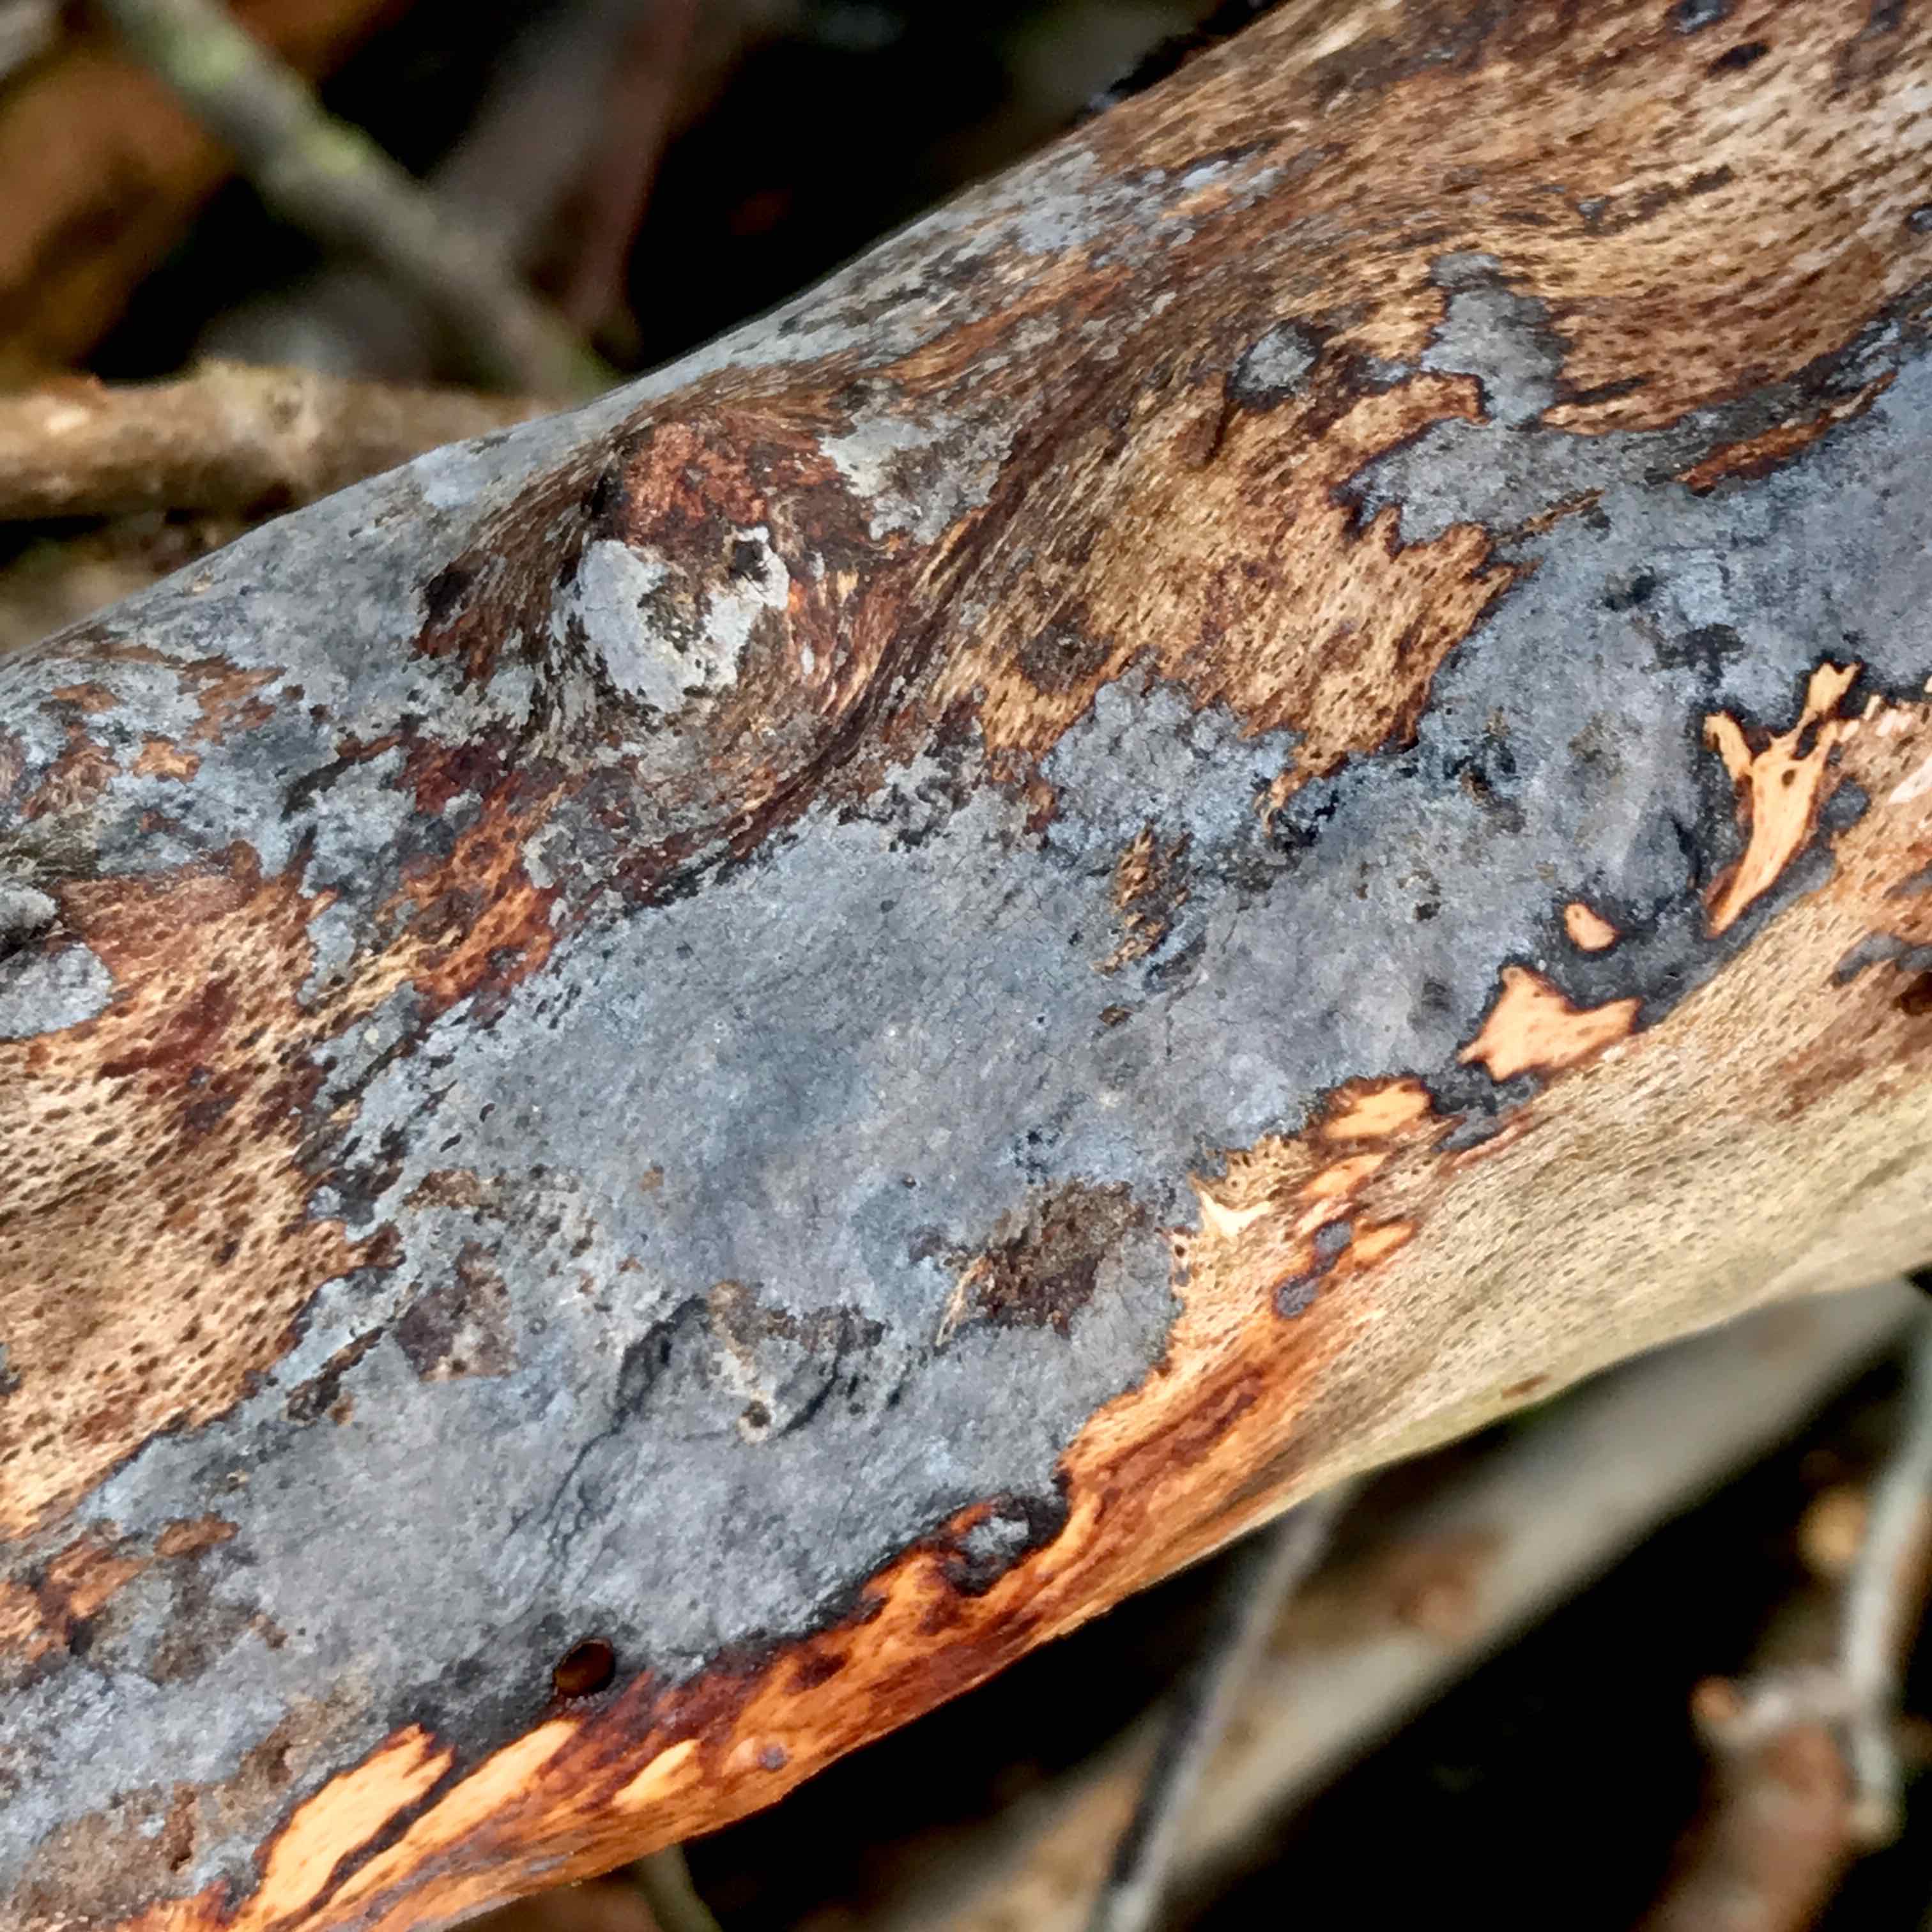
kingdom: Fungi
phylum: Basidiomycota
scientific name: Basidiomycota
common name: basidiesvampe
